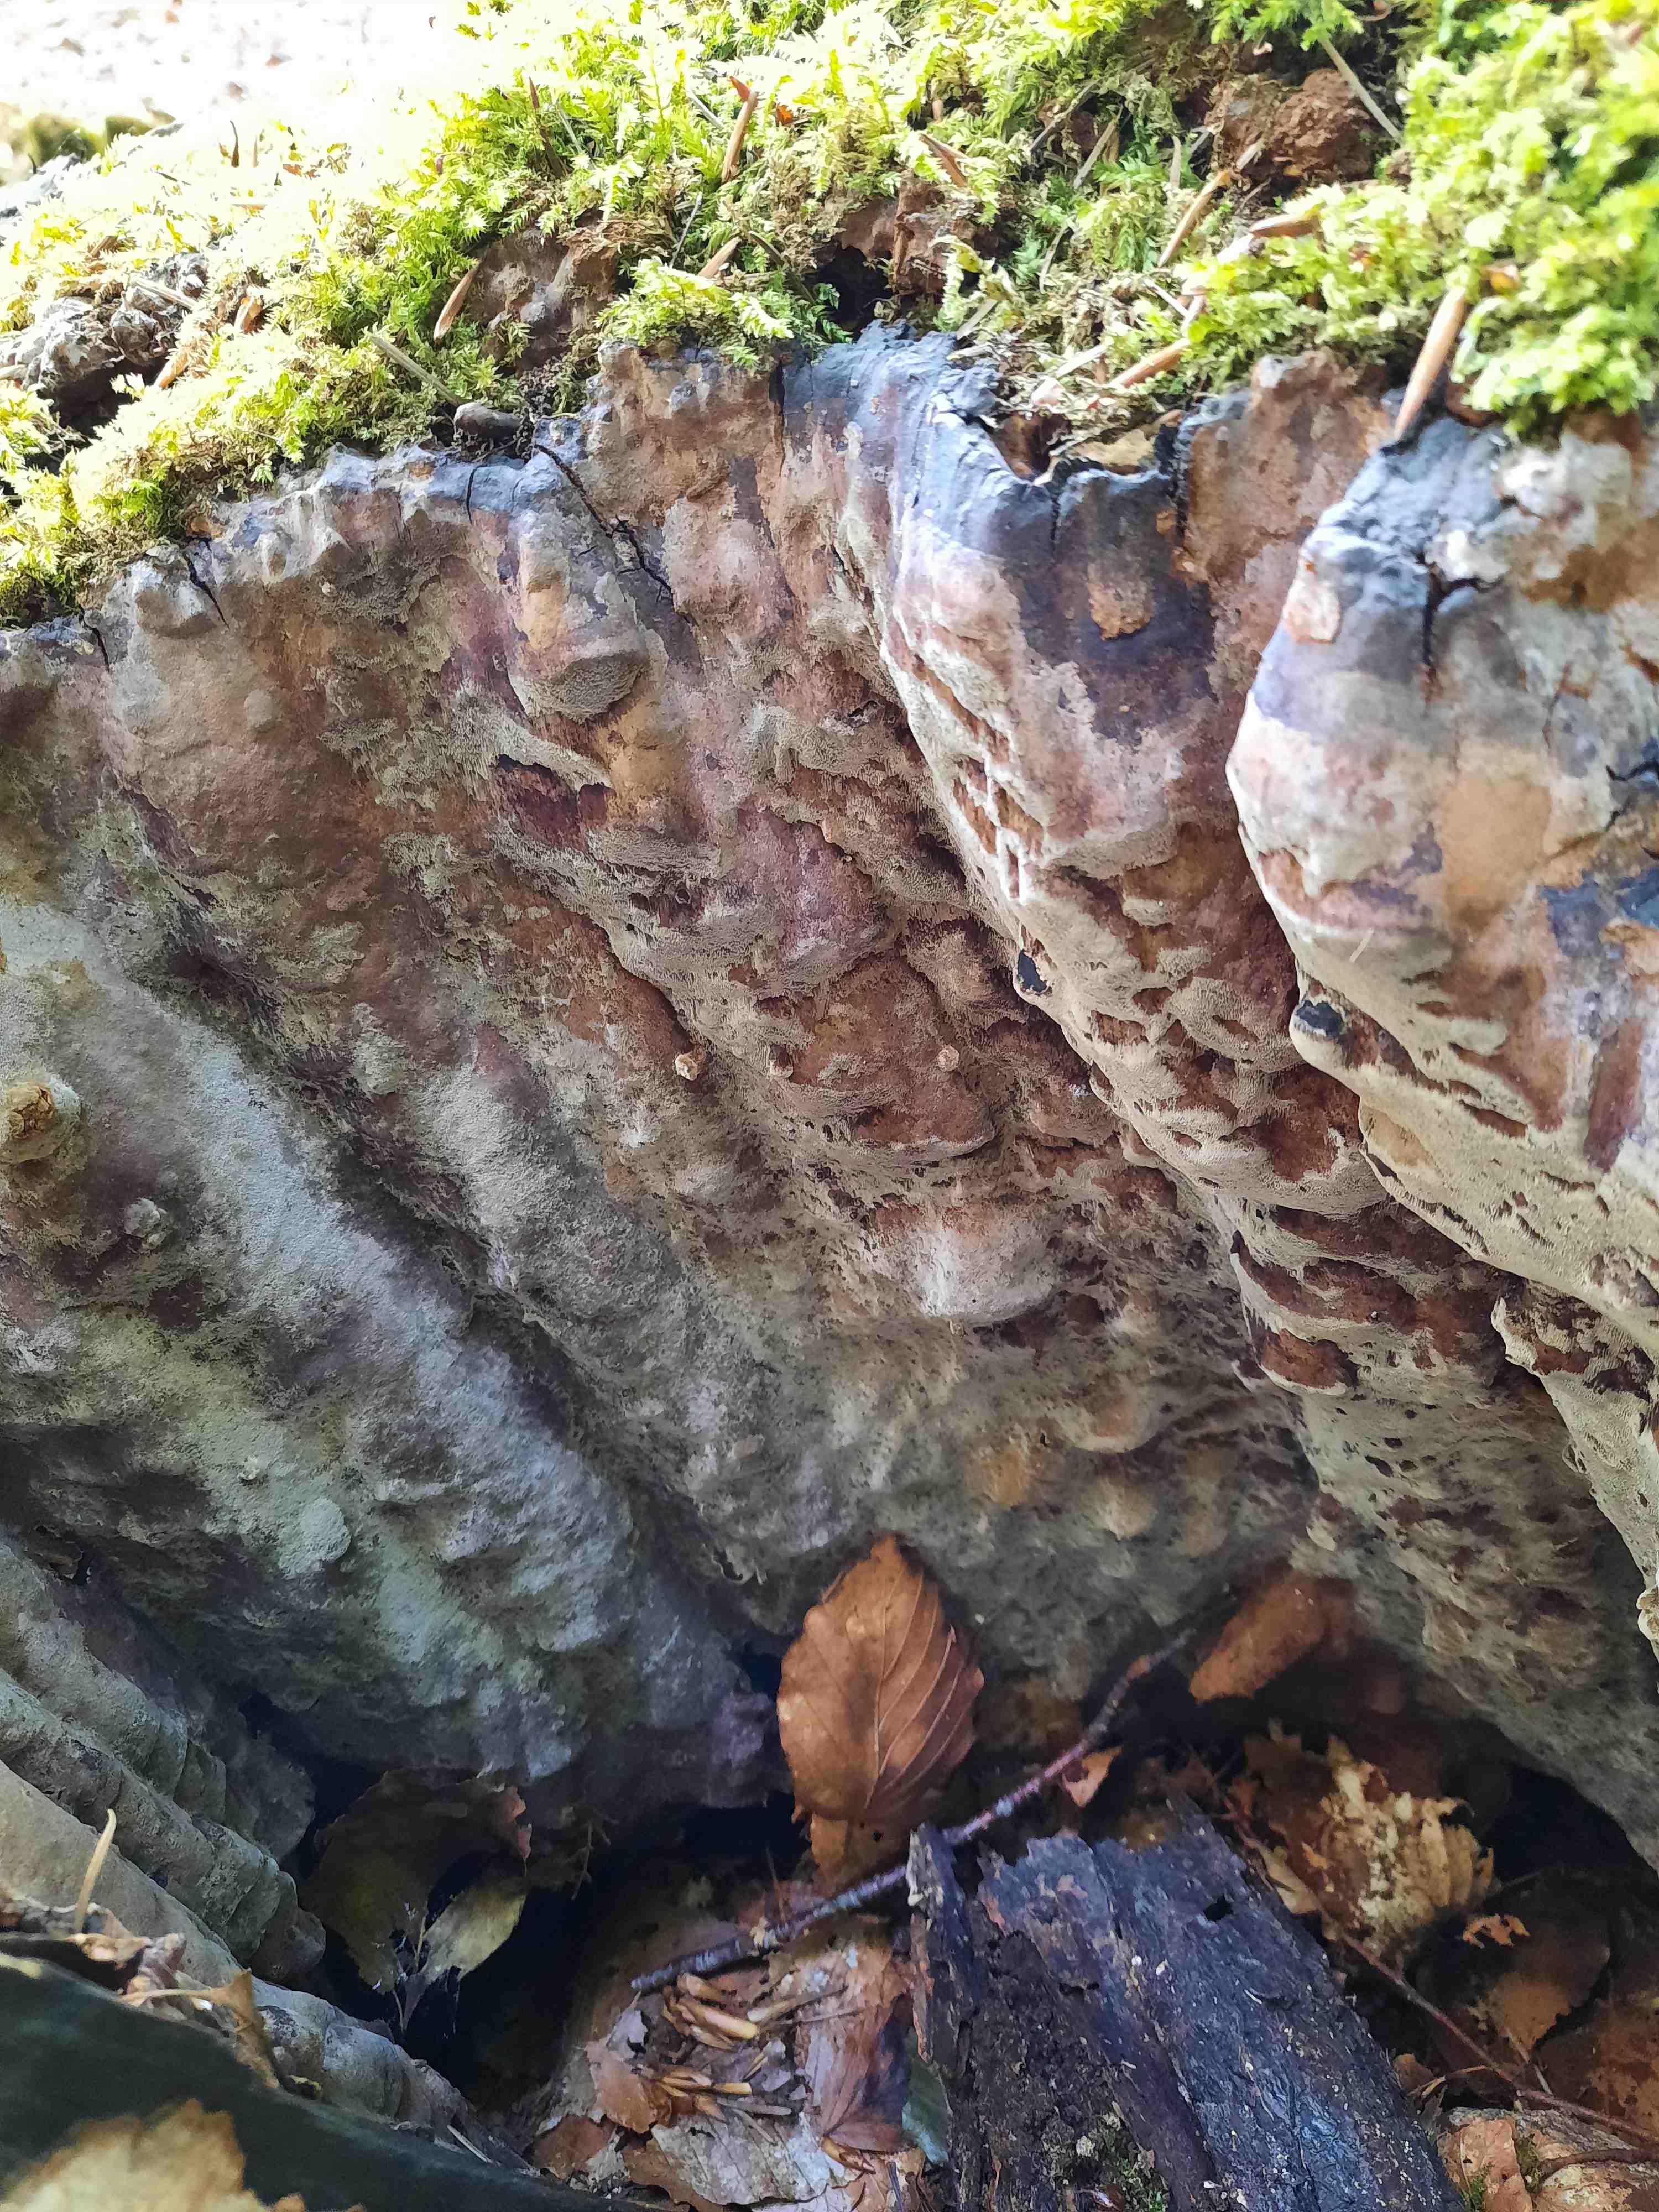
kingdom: Fungi
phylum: Basidiomycota
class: Agaricomycetes
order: Hymenochaetales
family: Hymenochaetaceae
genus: Phellinus
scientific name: Phellinus laevigatus
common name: glat ildporesvamp
